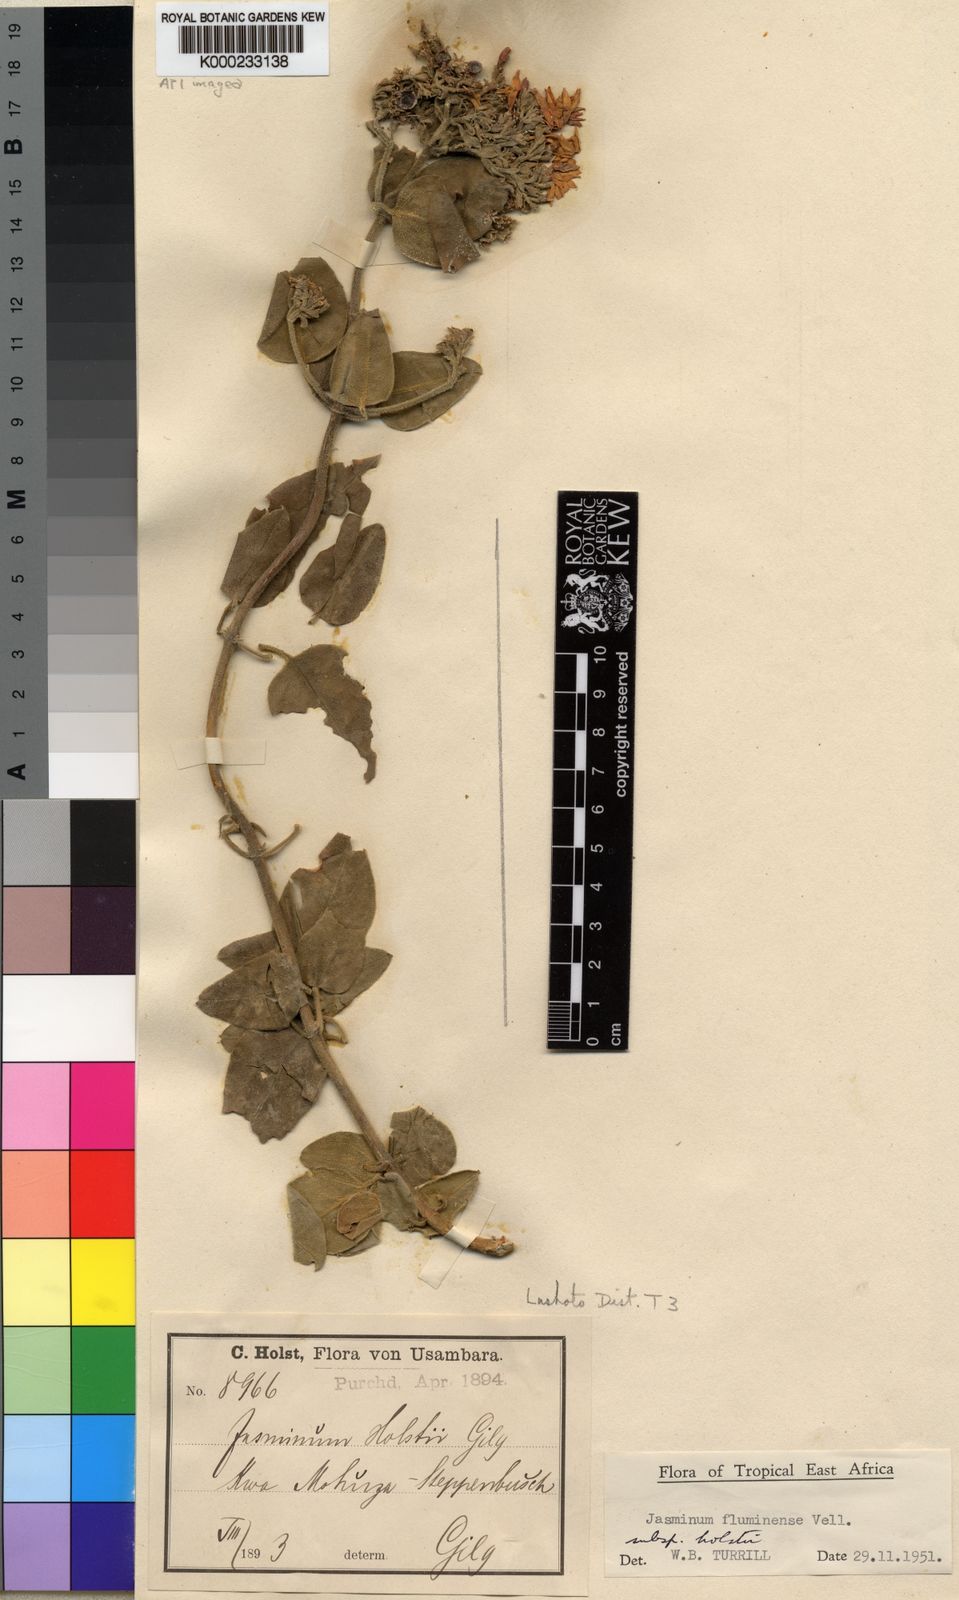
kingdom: Plantae
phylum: Tracheophyta
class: Magnoliopsida
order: Lamiales
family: Oleaceae
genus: Jasminum
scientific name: Jasminum fluminense
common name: Brazilian jasmine
